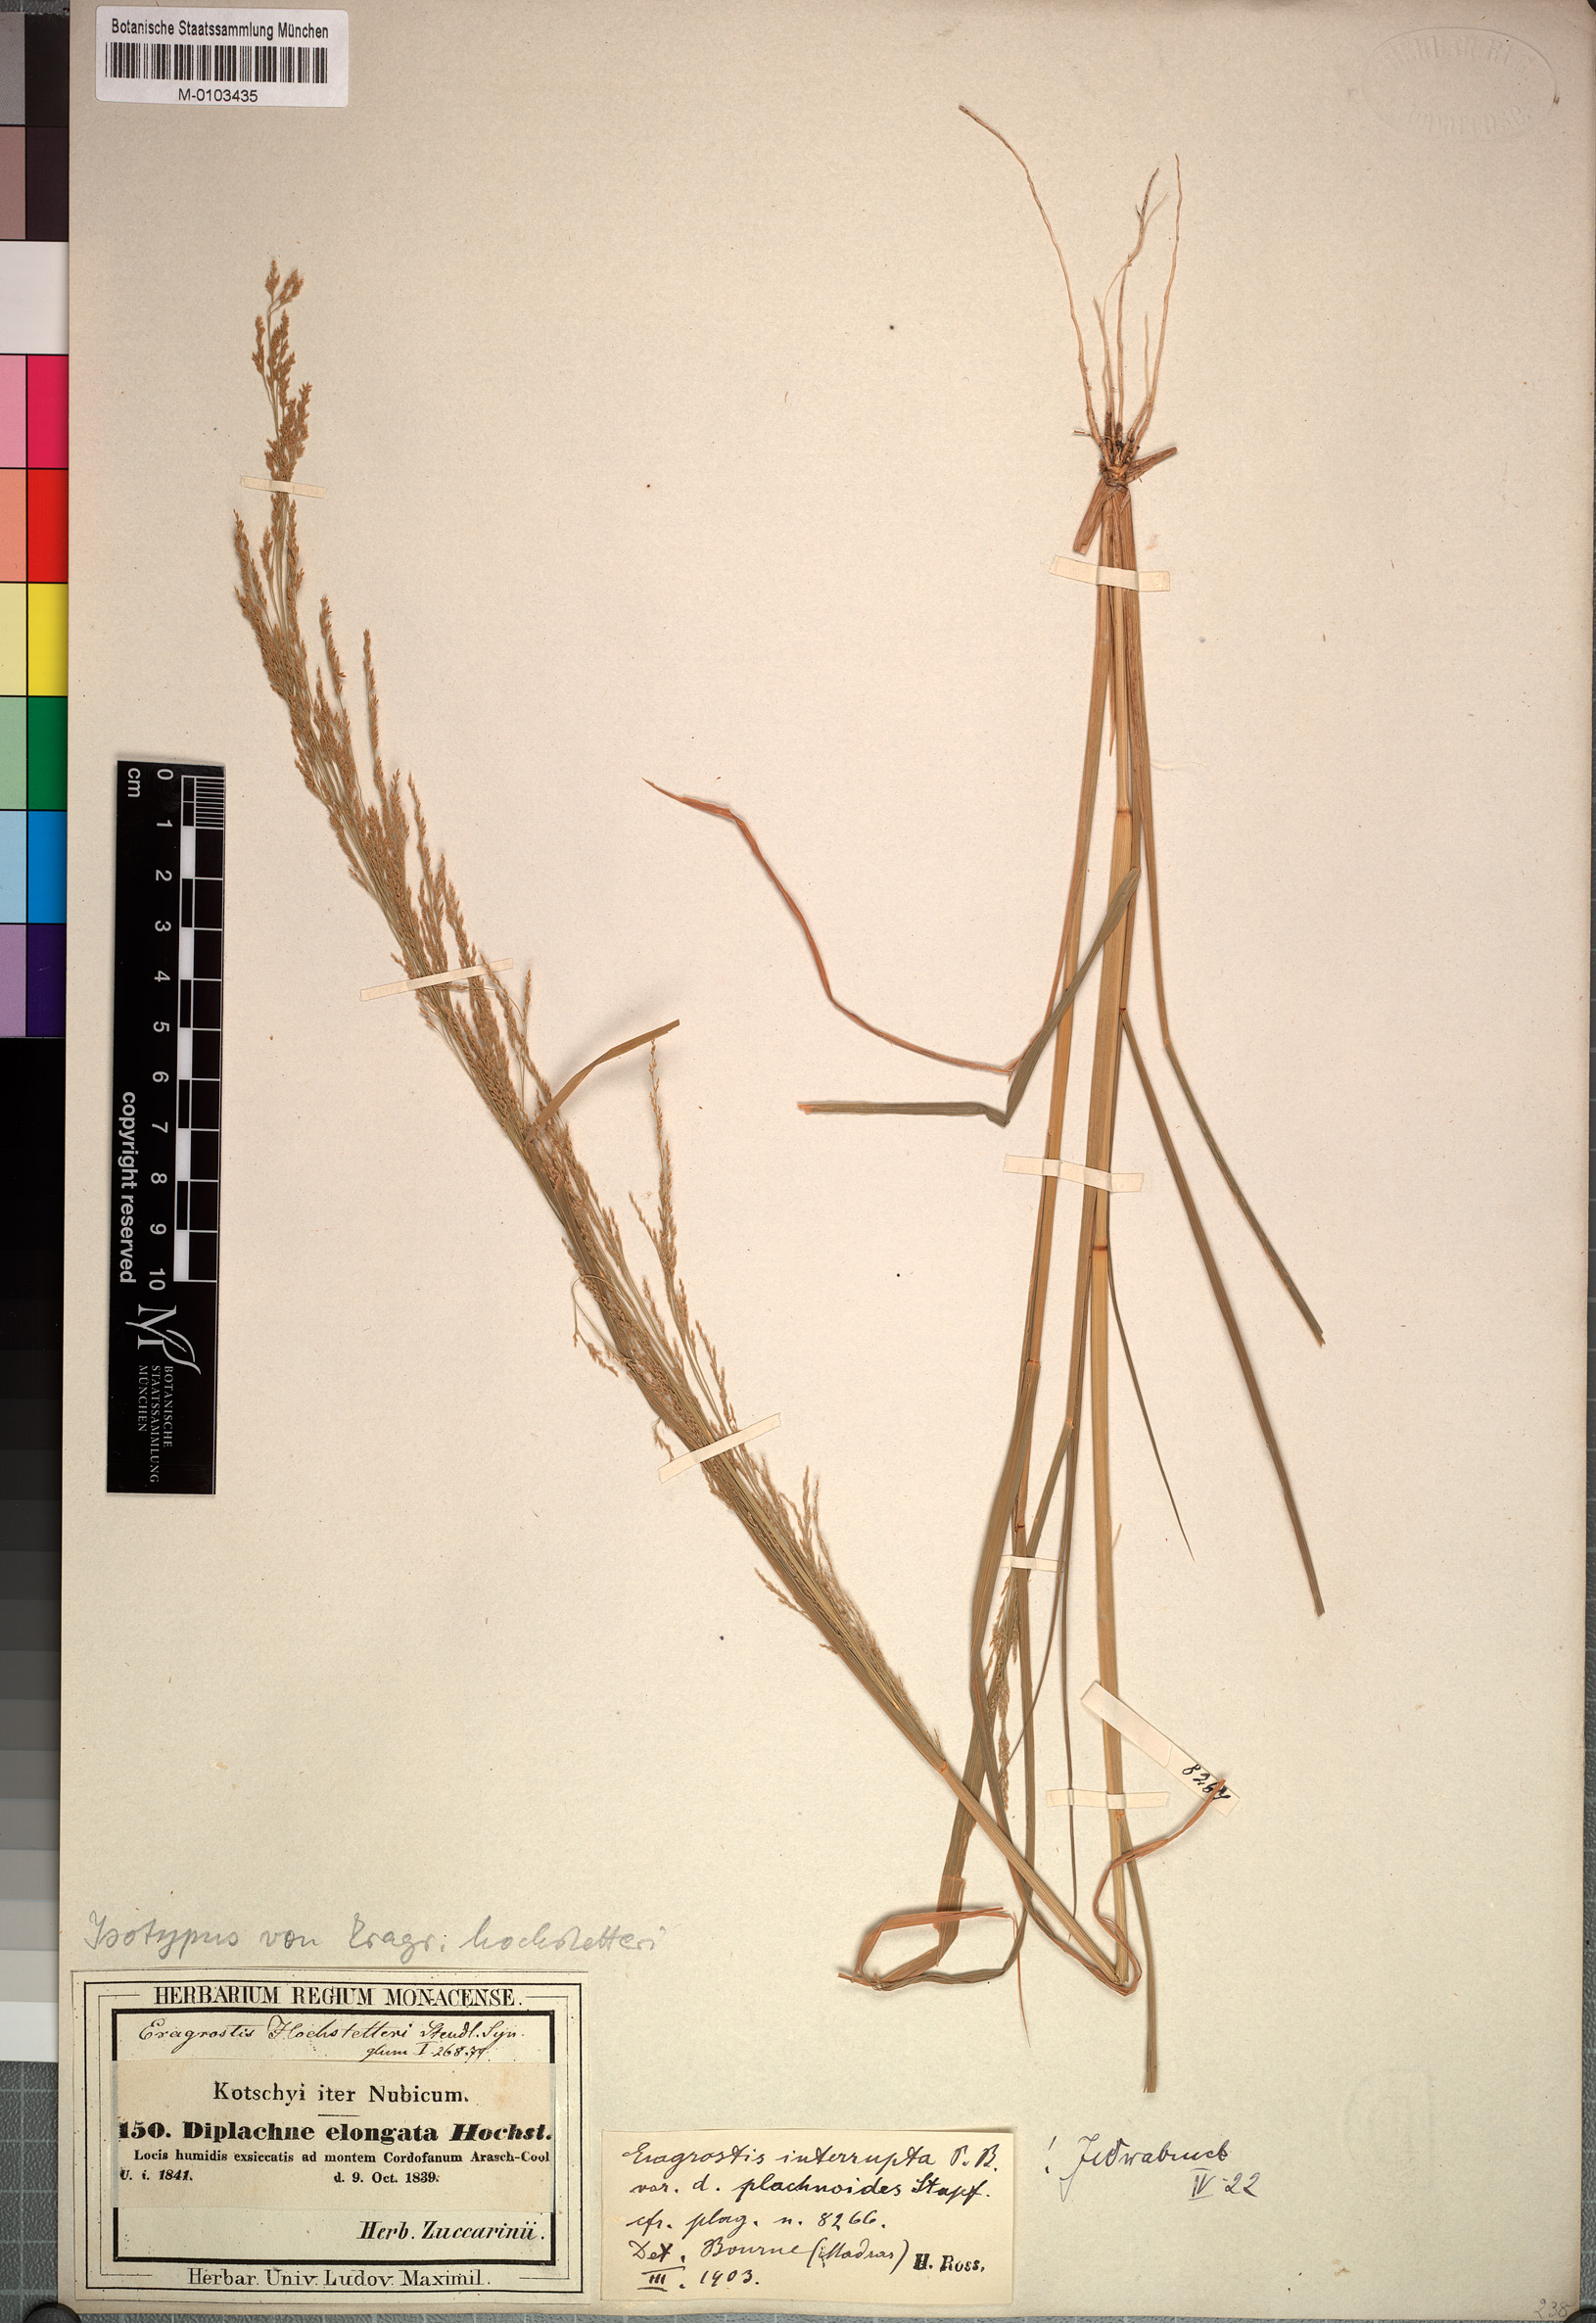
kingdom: Plantae
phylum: Tracheophyta
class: Liliopsida
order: Poales
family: Poaceae
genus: Eragrostis
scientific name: Eragrostis japonica
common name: Pond lovegrass
